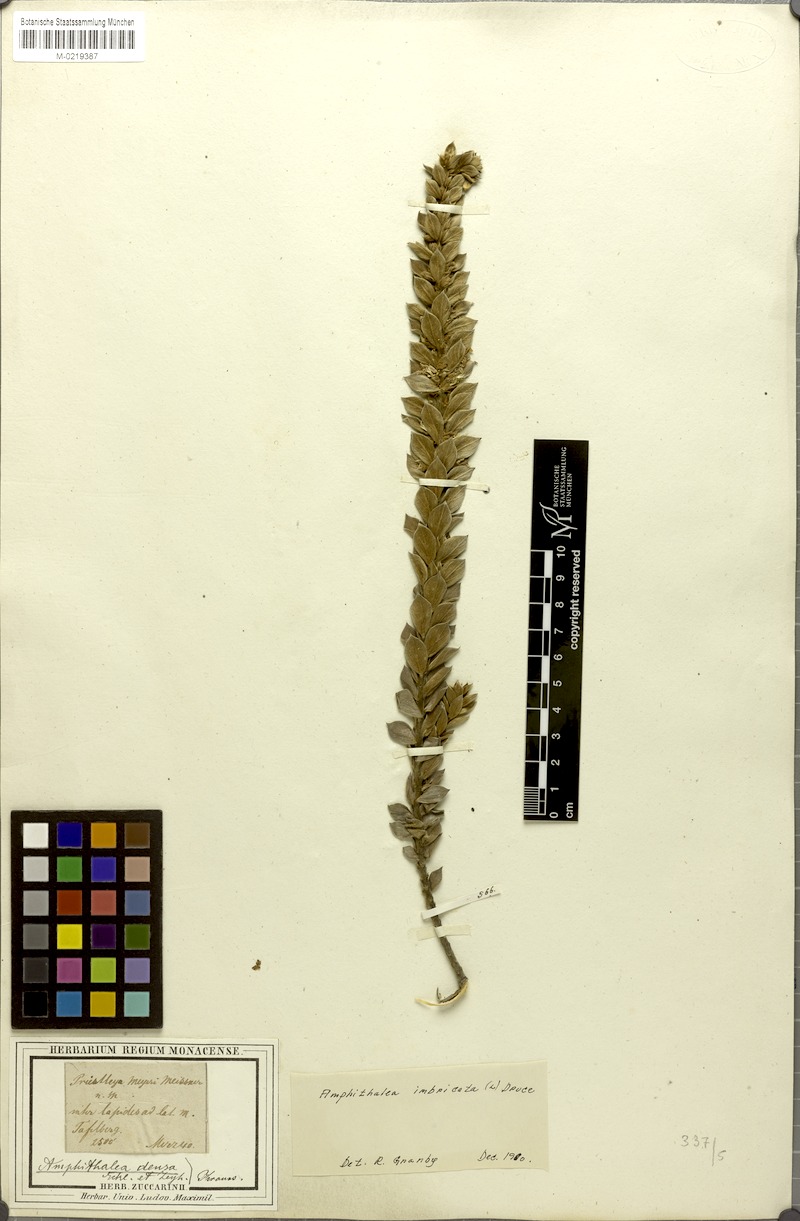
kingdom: Plantae
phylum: Tracheophyta
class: Magnoliopsida
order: Fabales
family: Fabaceae
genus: Amphithalea
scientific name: Amphithalea imbricata
